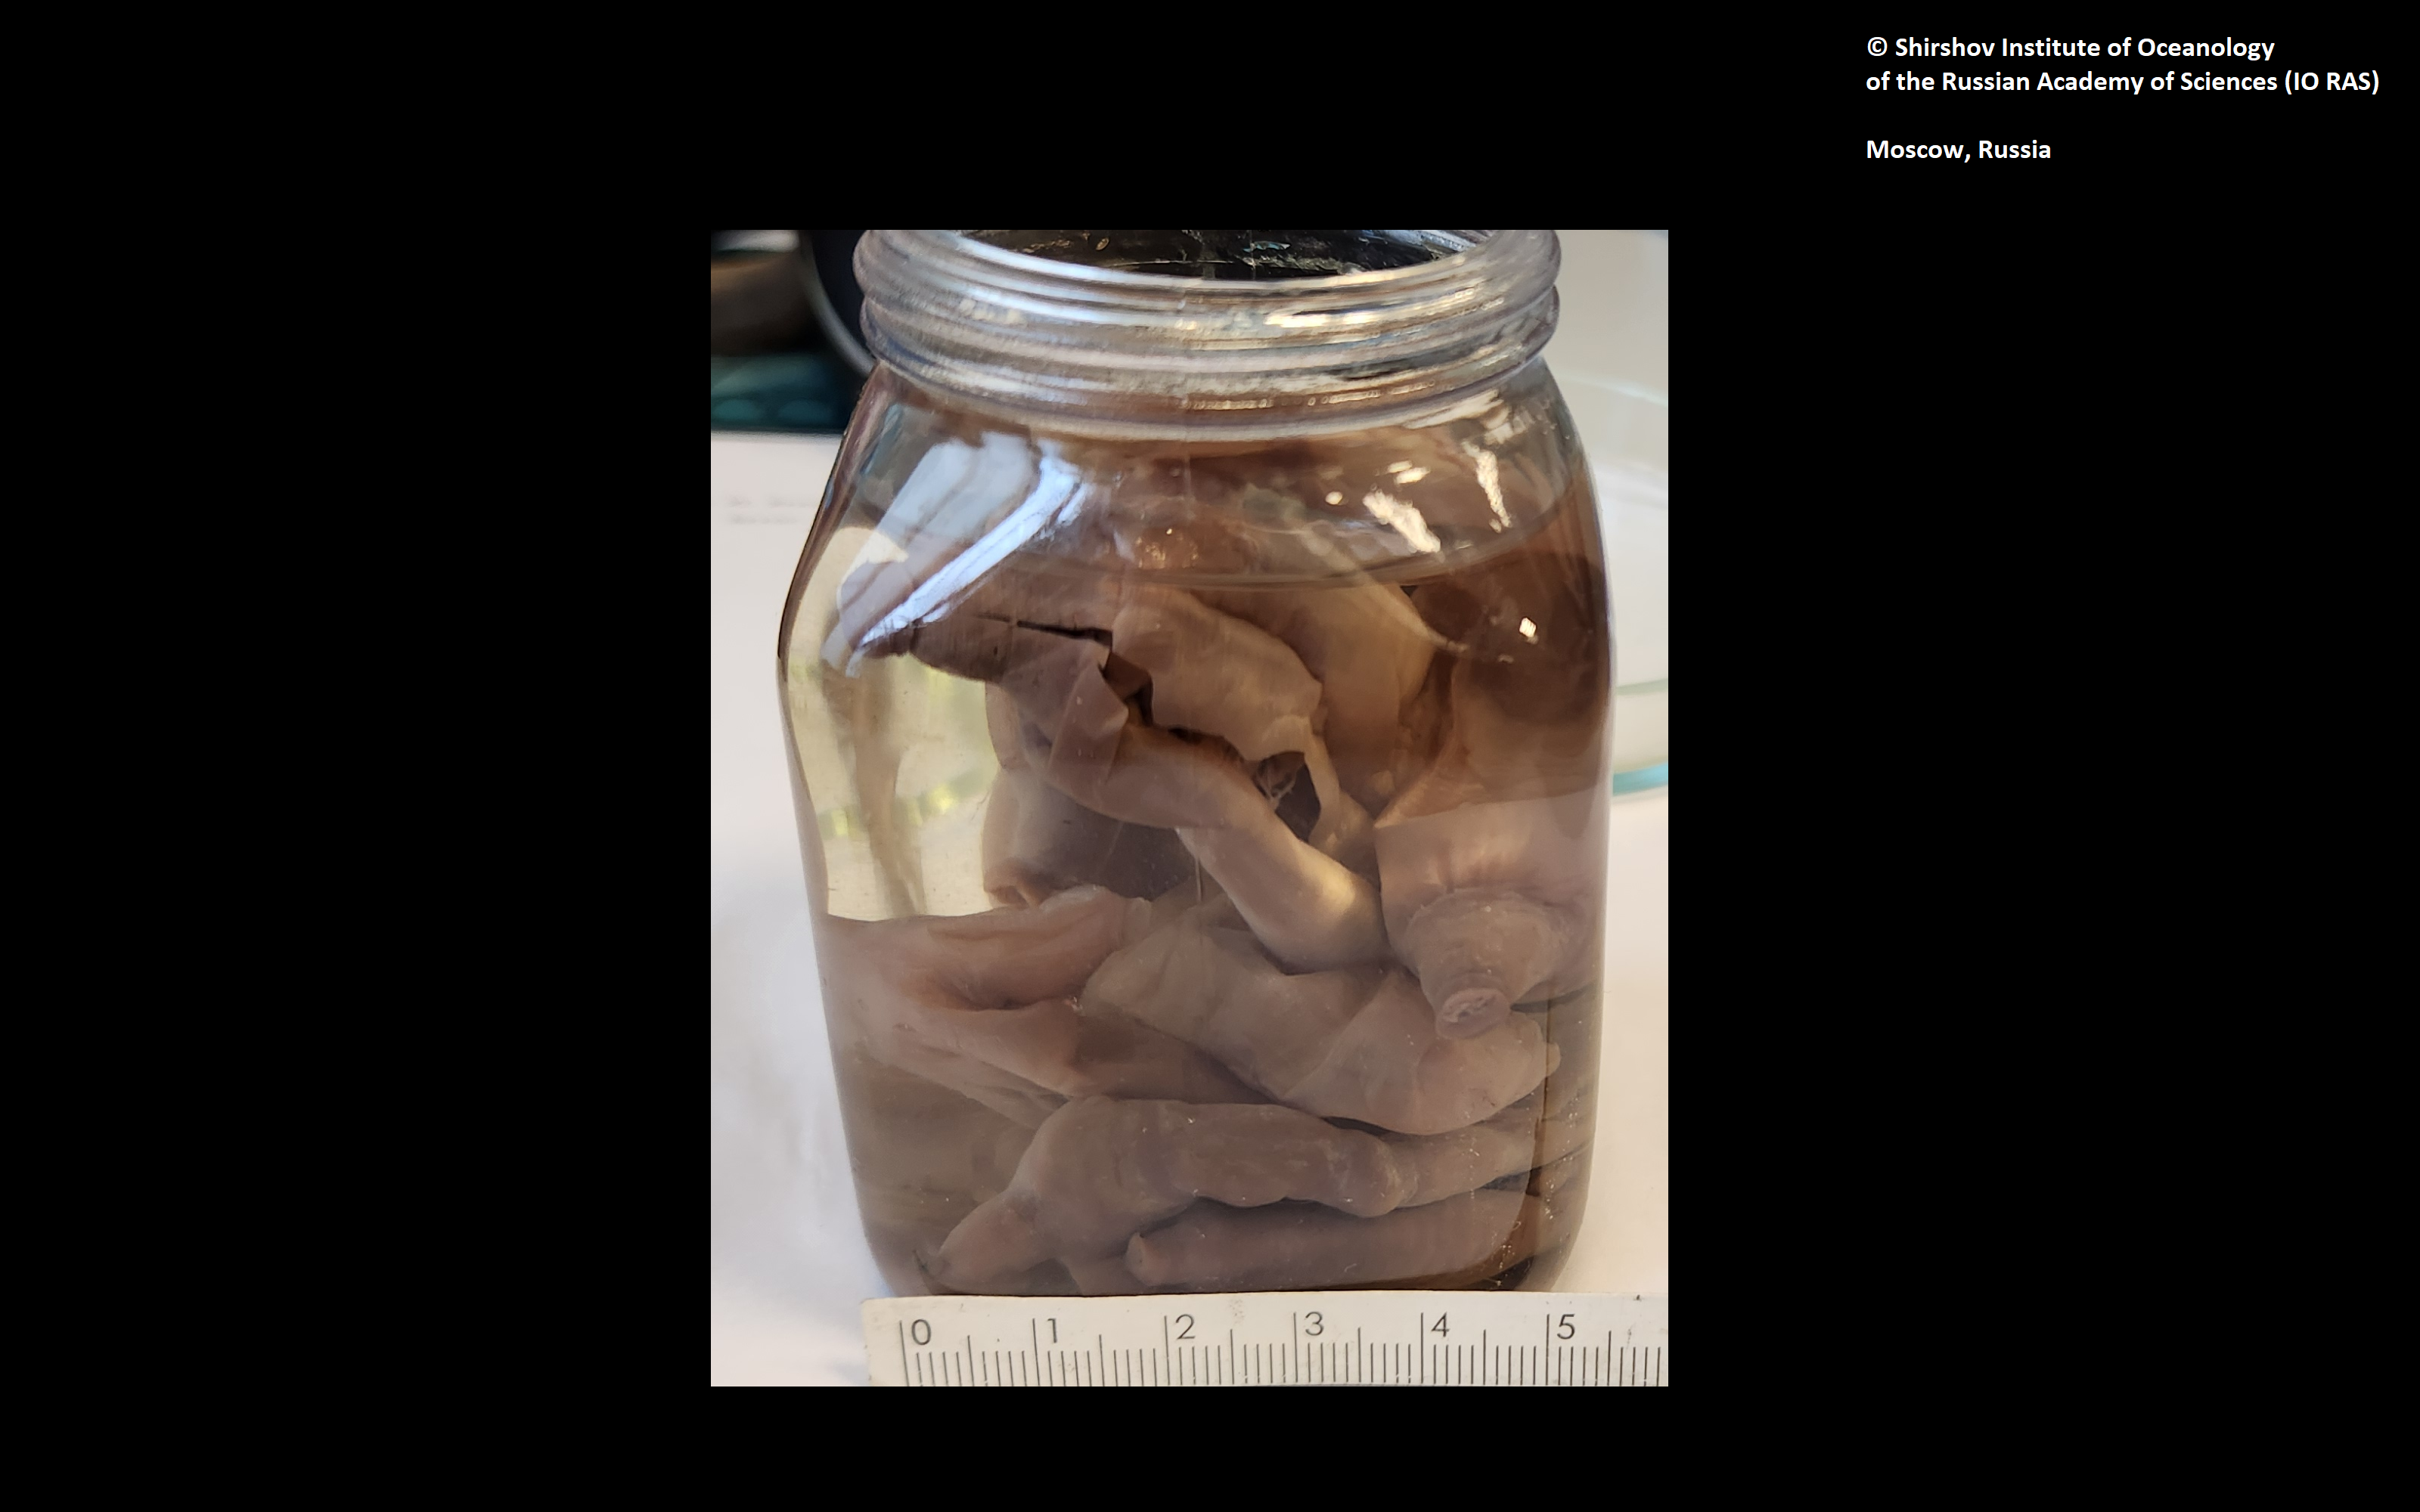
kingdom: Animalia
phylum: Annelida
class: Polychaeta
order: Echiuroidea
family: Bonelliidae
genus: Bonellia
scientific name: Bonellia pacifica
